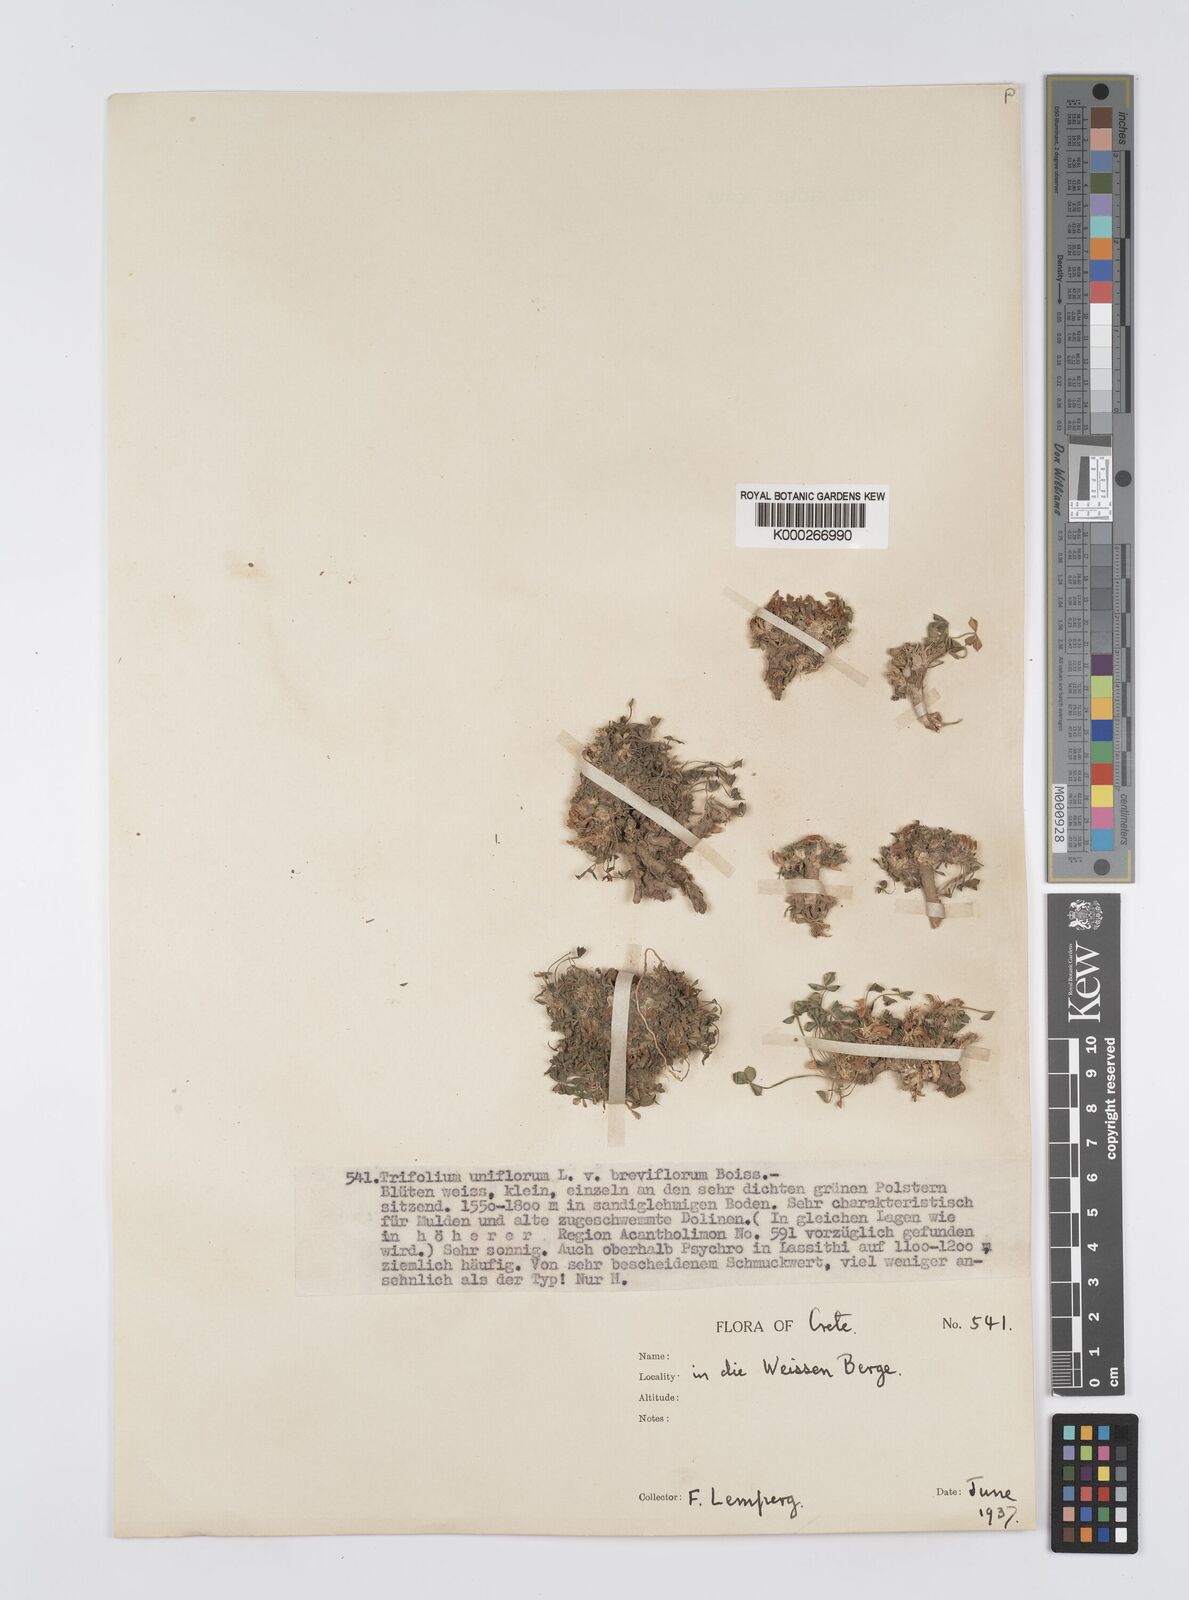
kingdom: Plantae
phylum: Tracheophyta
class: Magnoliopsida
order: Fabales
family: Fabaceae
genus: Trifolium
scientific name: Trifolium uniflorum
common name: One-flower clover
